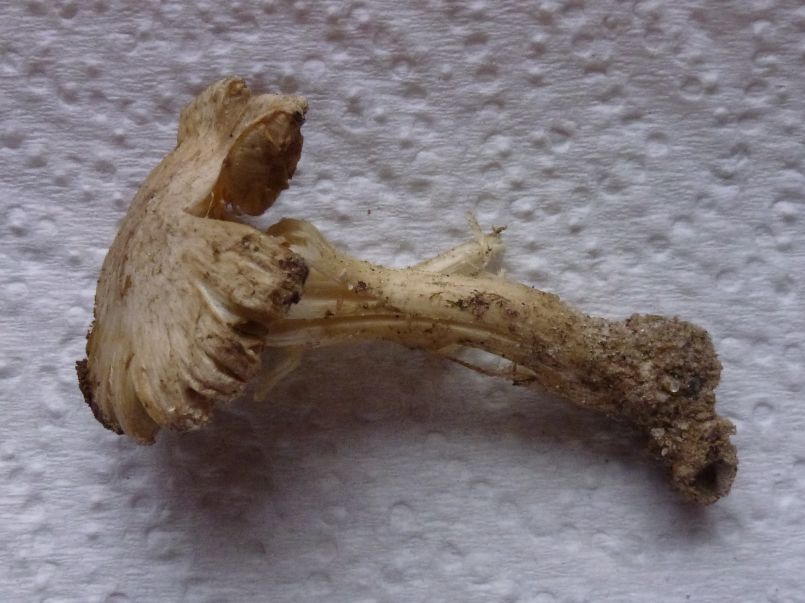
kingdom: Fungi
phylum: Basidiomycota
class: Agaricomycetes
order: Agaricales
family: Inocybaceae
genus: Inocybe
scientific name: Inocybe sindonia
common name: bleg trævlhat
